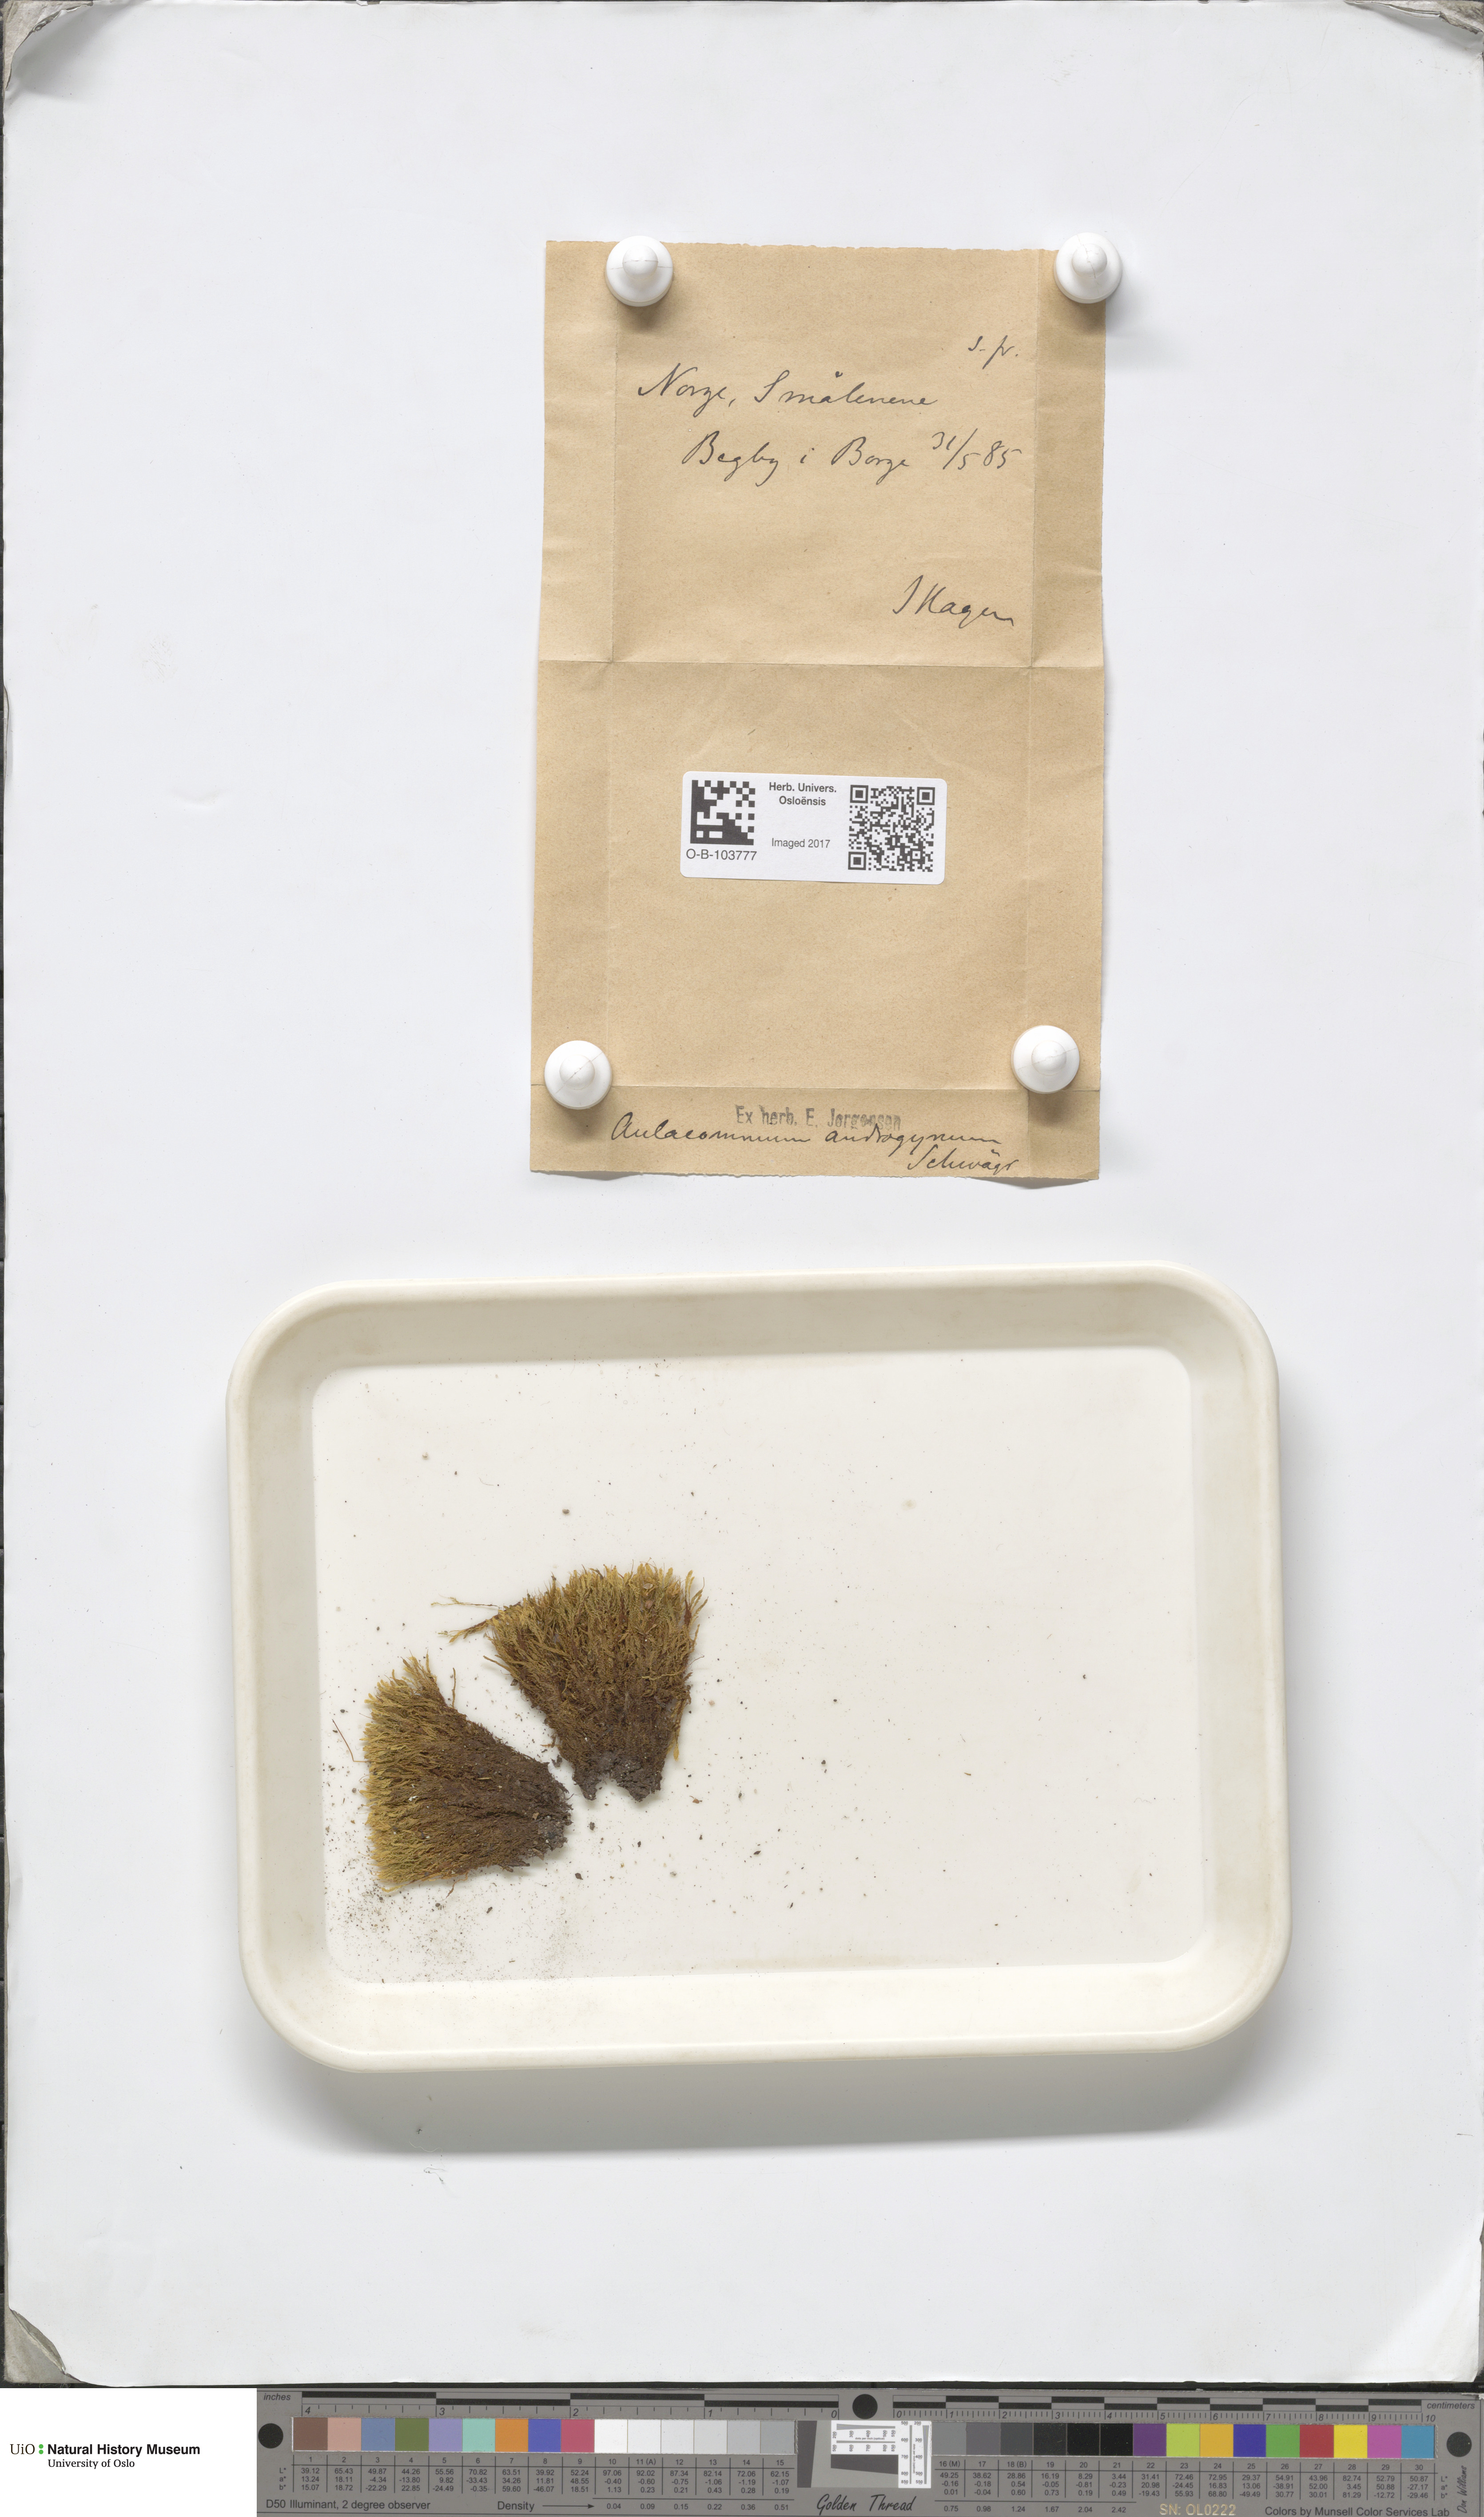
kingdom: Plantae
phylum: Bryophyta
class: Bryopsida
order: Aulacomniales
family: Aulacomniaceae
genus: Aulacomnium
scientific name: Aulacomnium androgynum
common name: Little groove moss
